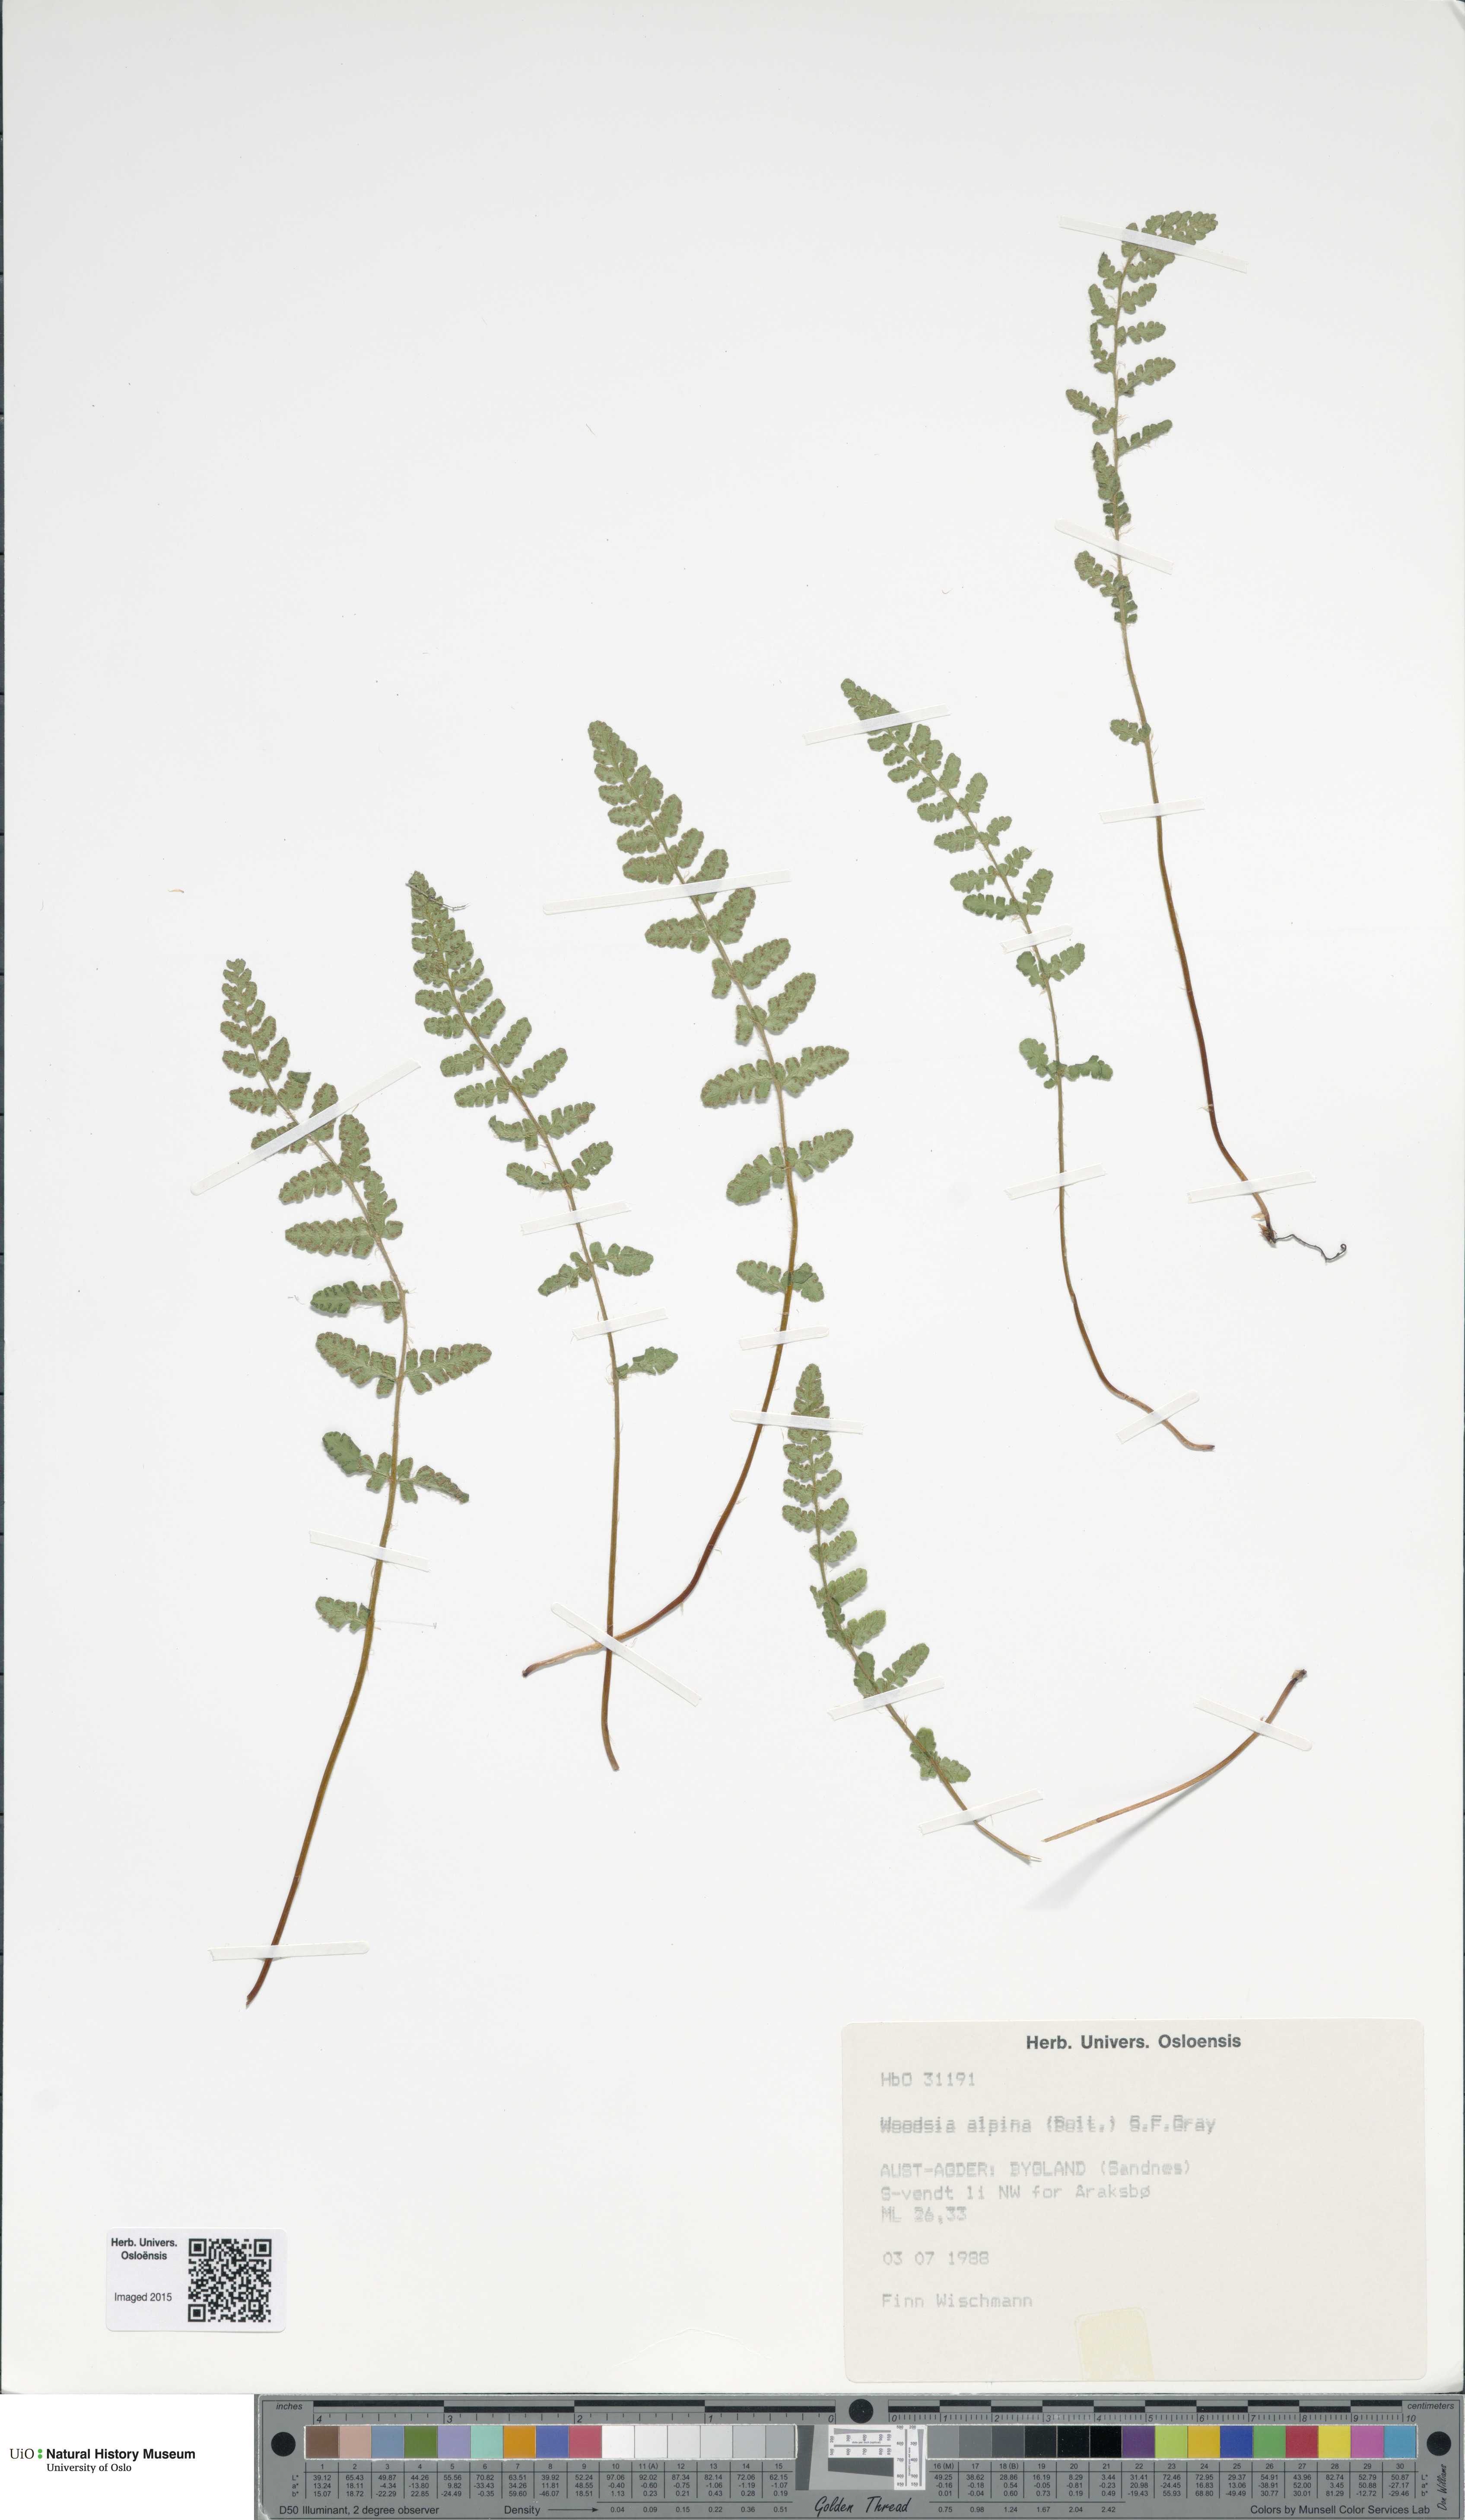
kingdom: Plantae
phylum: Tracheophyta
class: Polypodiopsida
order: Polypodiales
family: Woodsiaceae
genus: Woodsia
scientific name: Woodsia alpina
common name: Alpine woodsia
